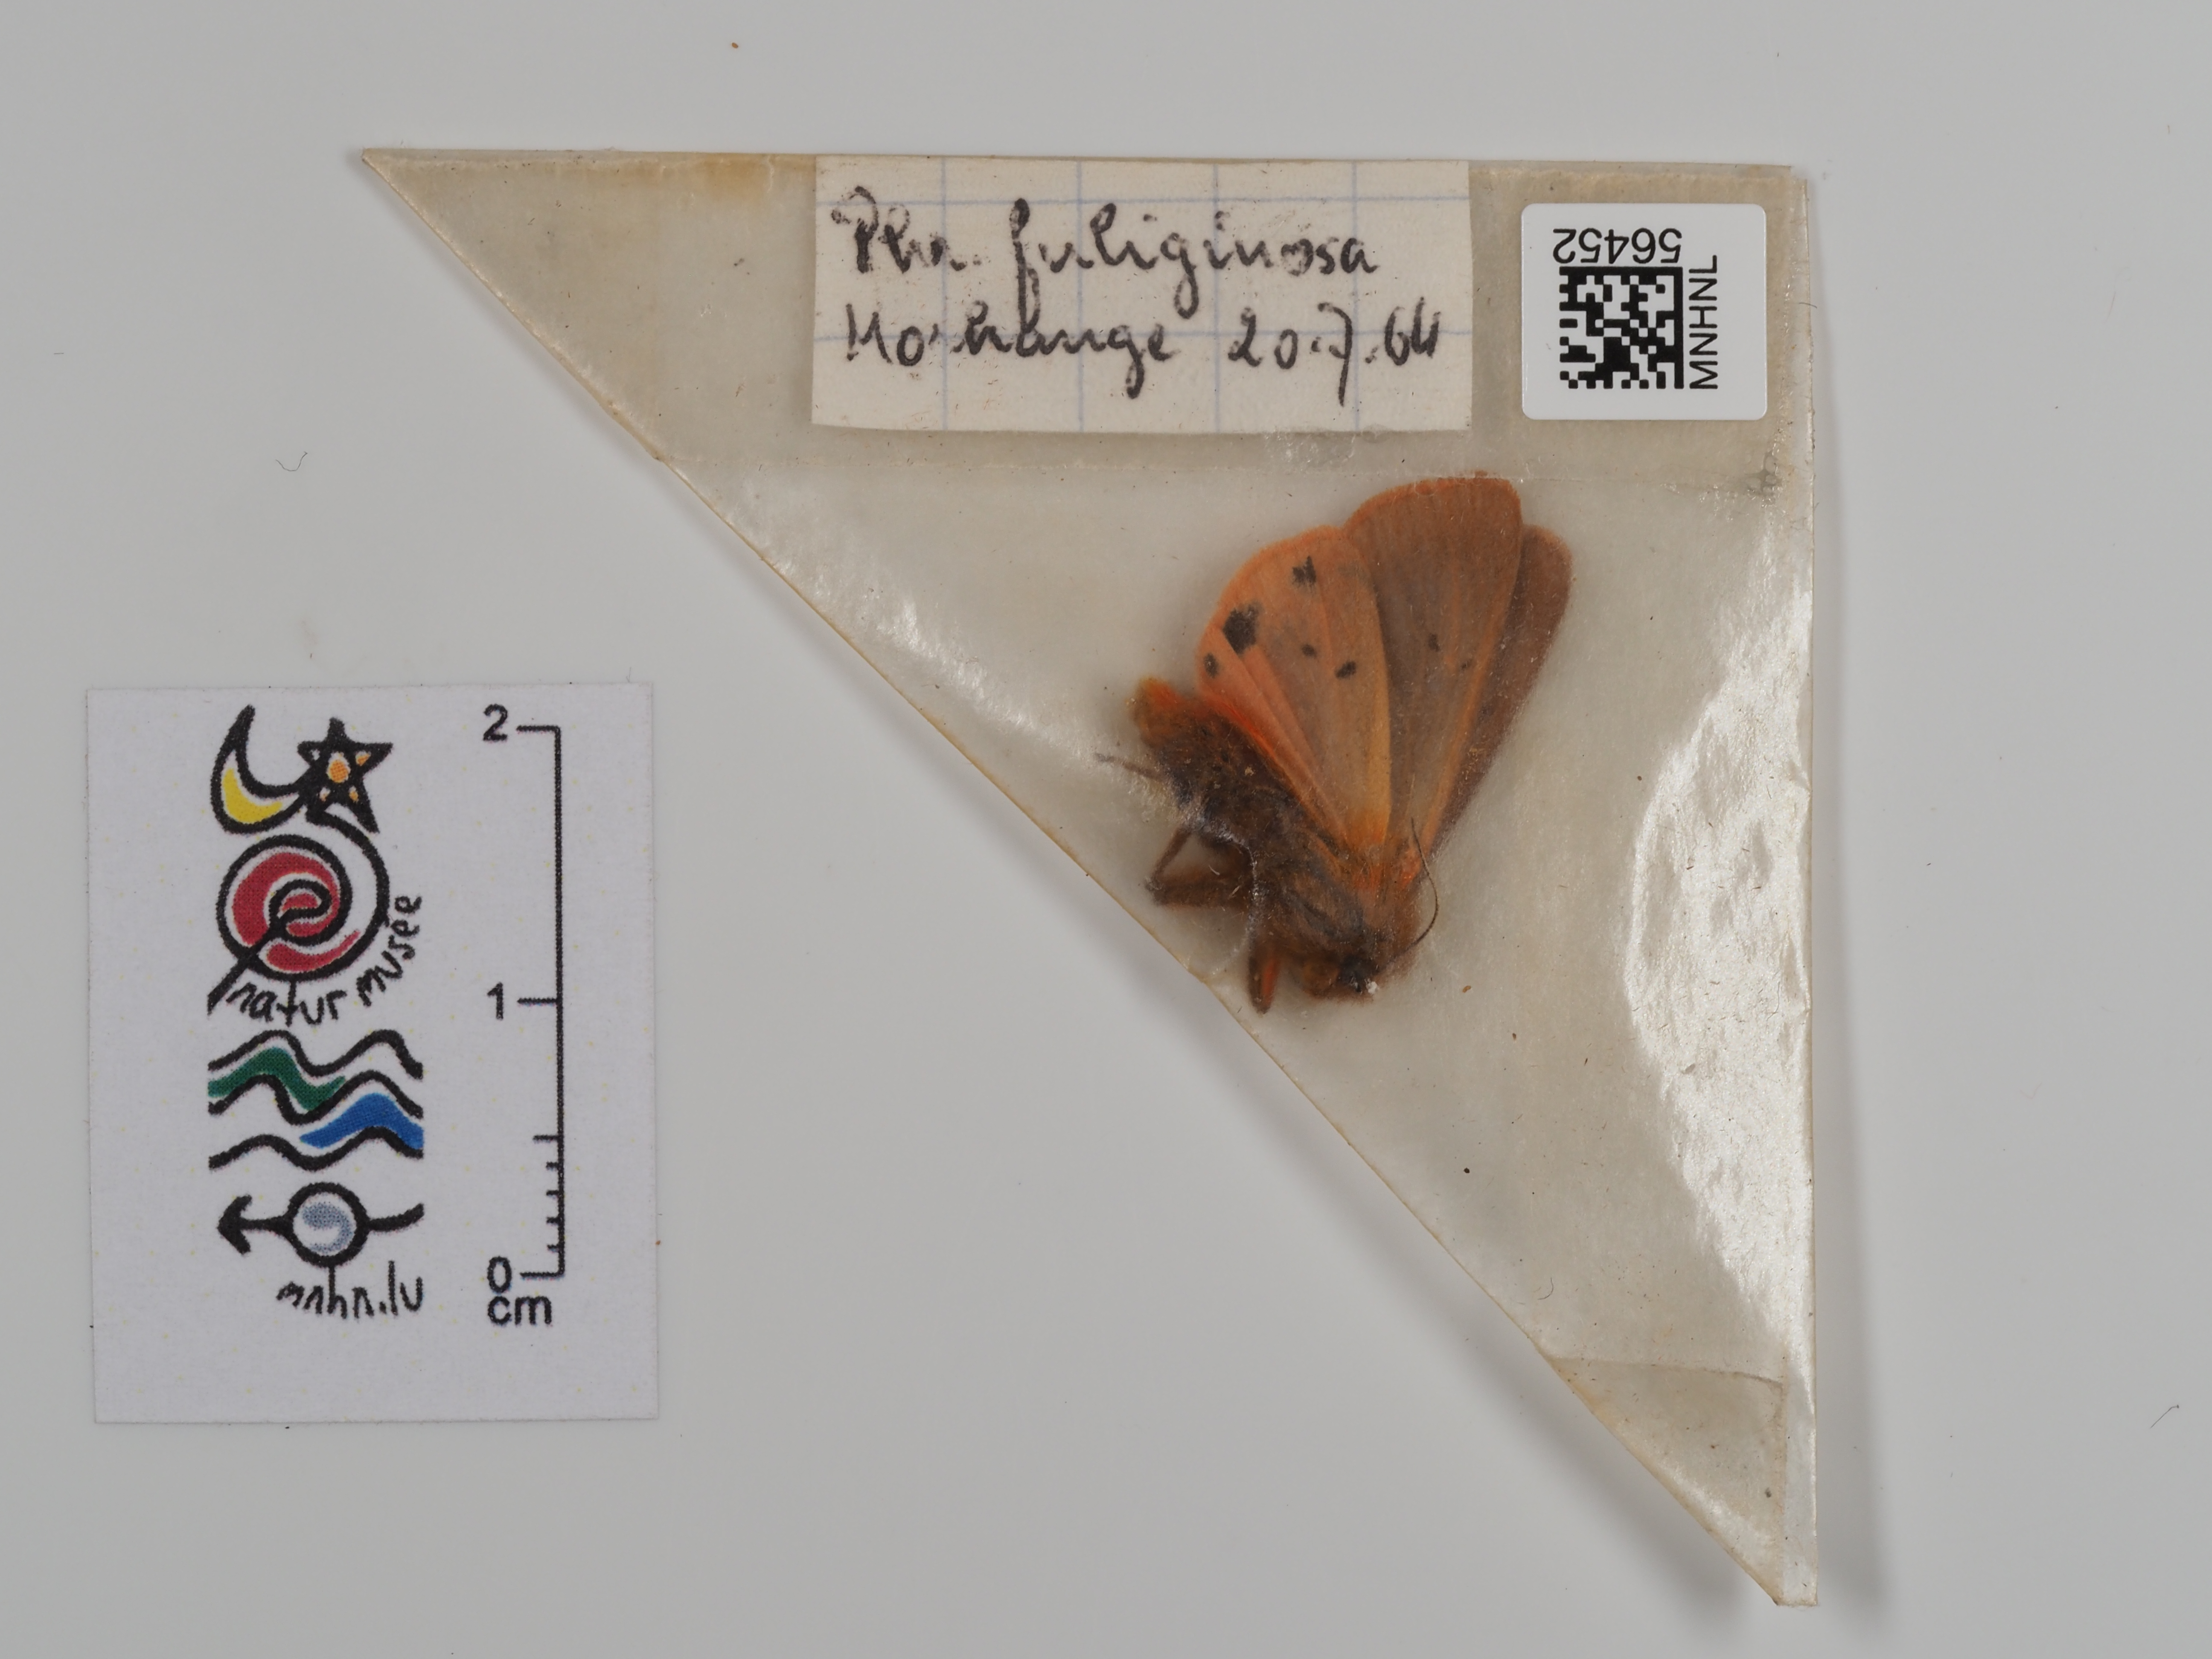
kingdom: Animalia
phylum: Arthropoda
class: Insecta
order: Lepidoptera
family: Erebidae
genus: Phragmatobia
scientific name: Phragmatobia fuliginosa
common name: Ruby tiger
